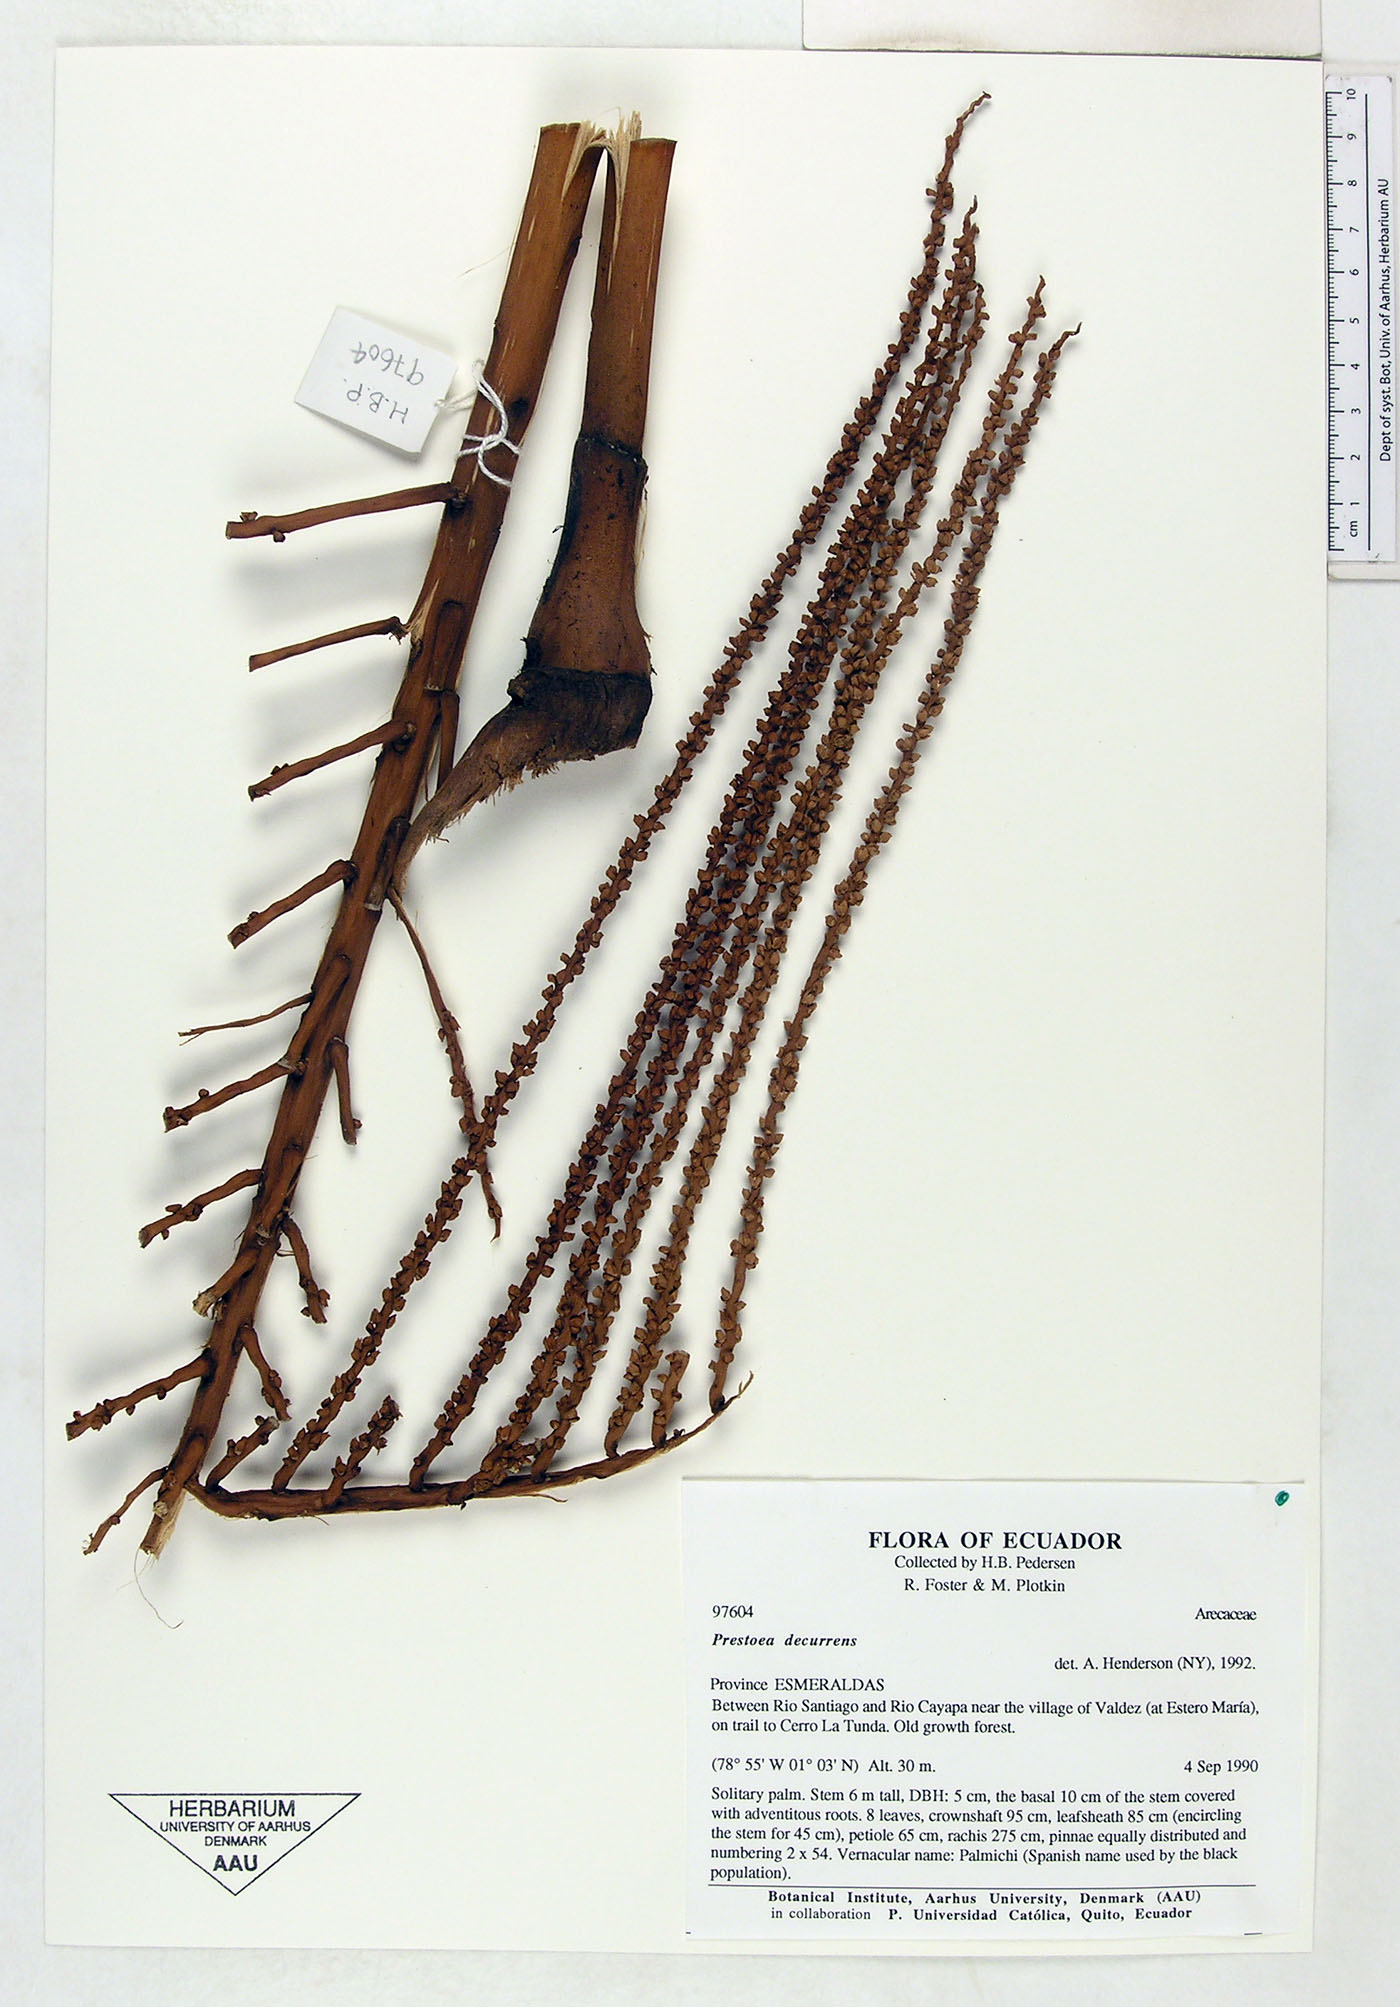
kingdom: Plantae
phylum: Tracheophyta
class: Liliopsida
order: Arecales
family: Arecaceae
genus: Prestoea
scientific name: Prestoea decurrens
